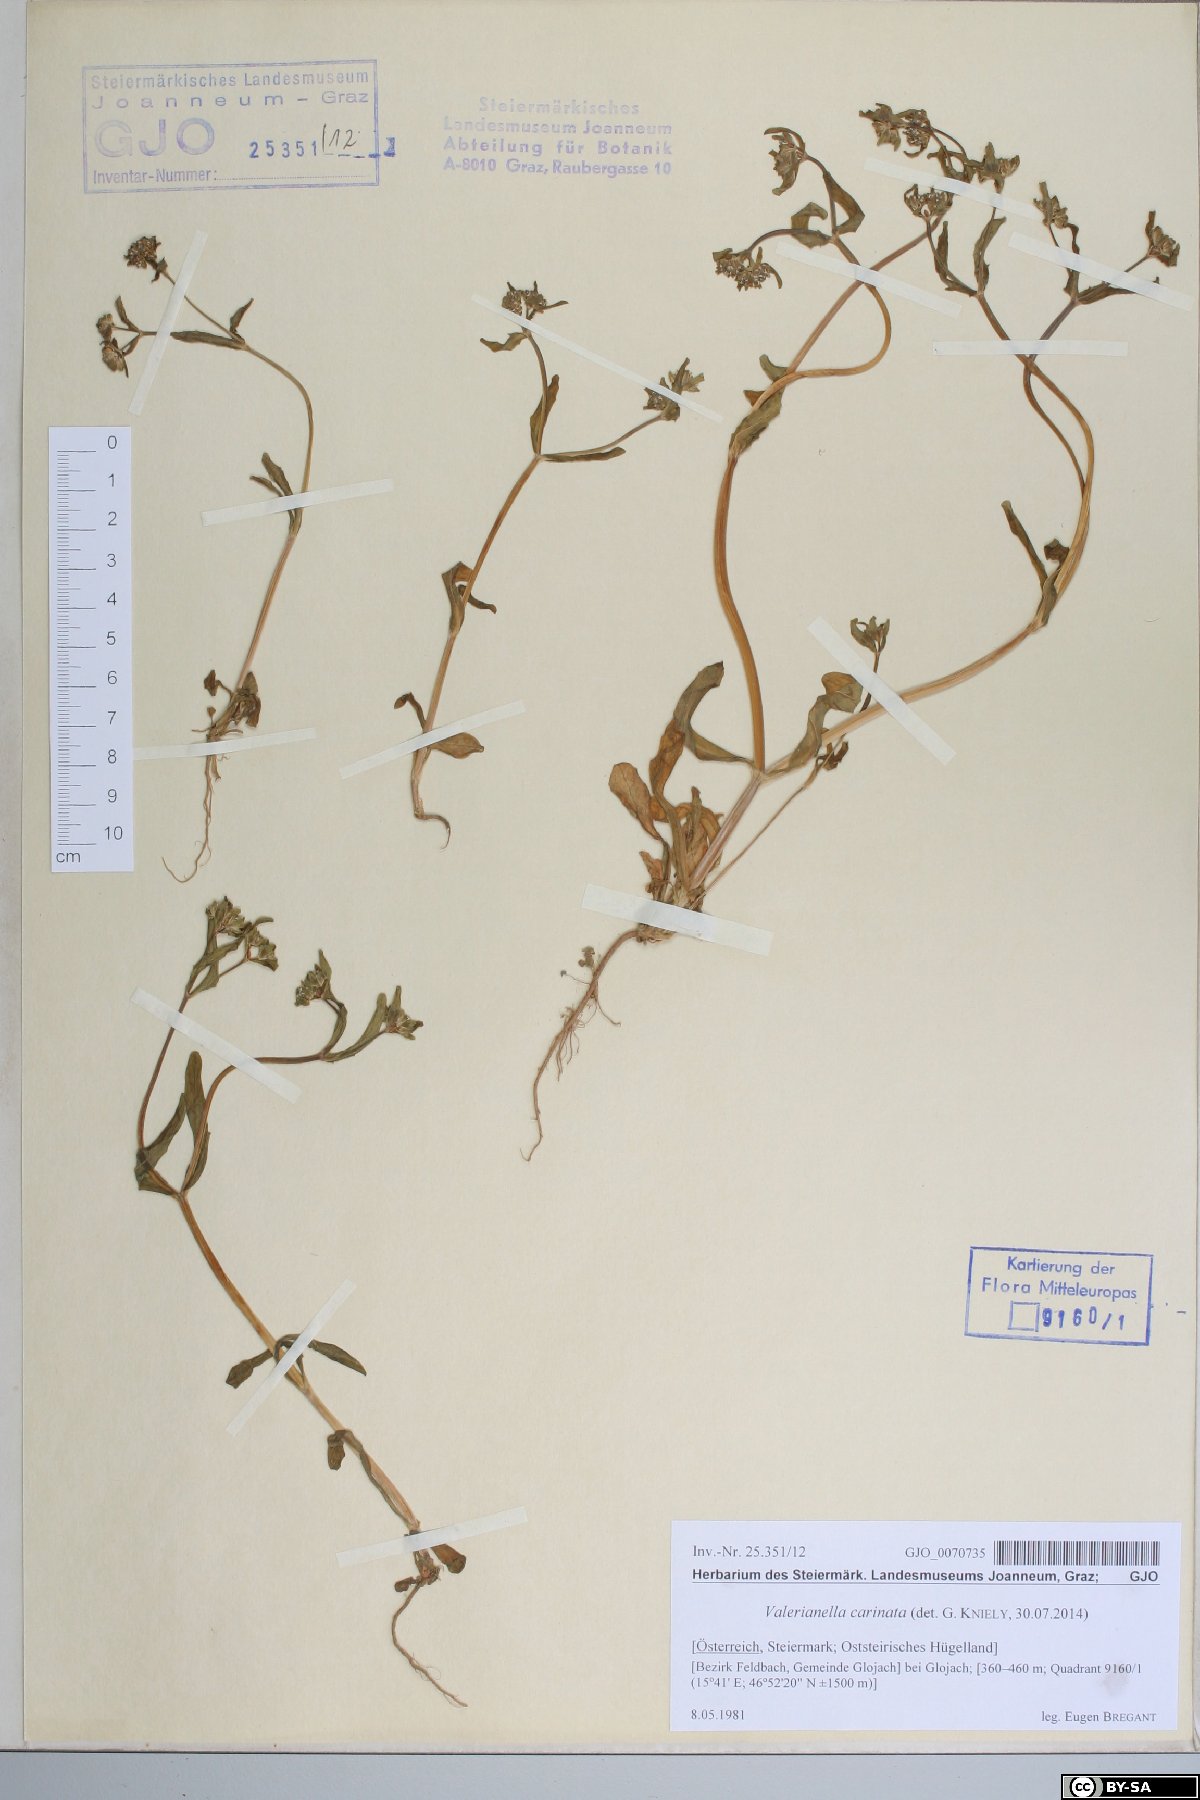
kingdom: Plantae
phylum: Tracheophyta
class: Magnoliopsida
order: Dipsacales
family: Caprifoliaceae
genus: Valerianella
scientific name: Valerianella carinata
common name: Keeled-fruited cornsalad
